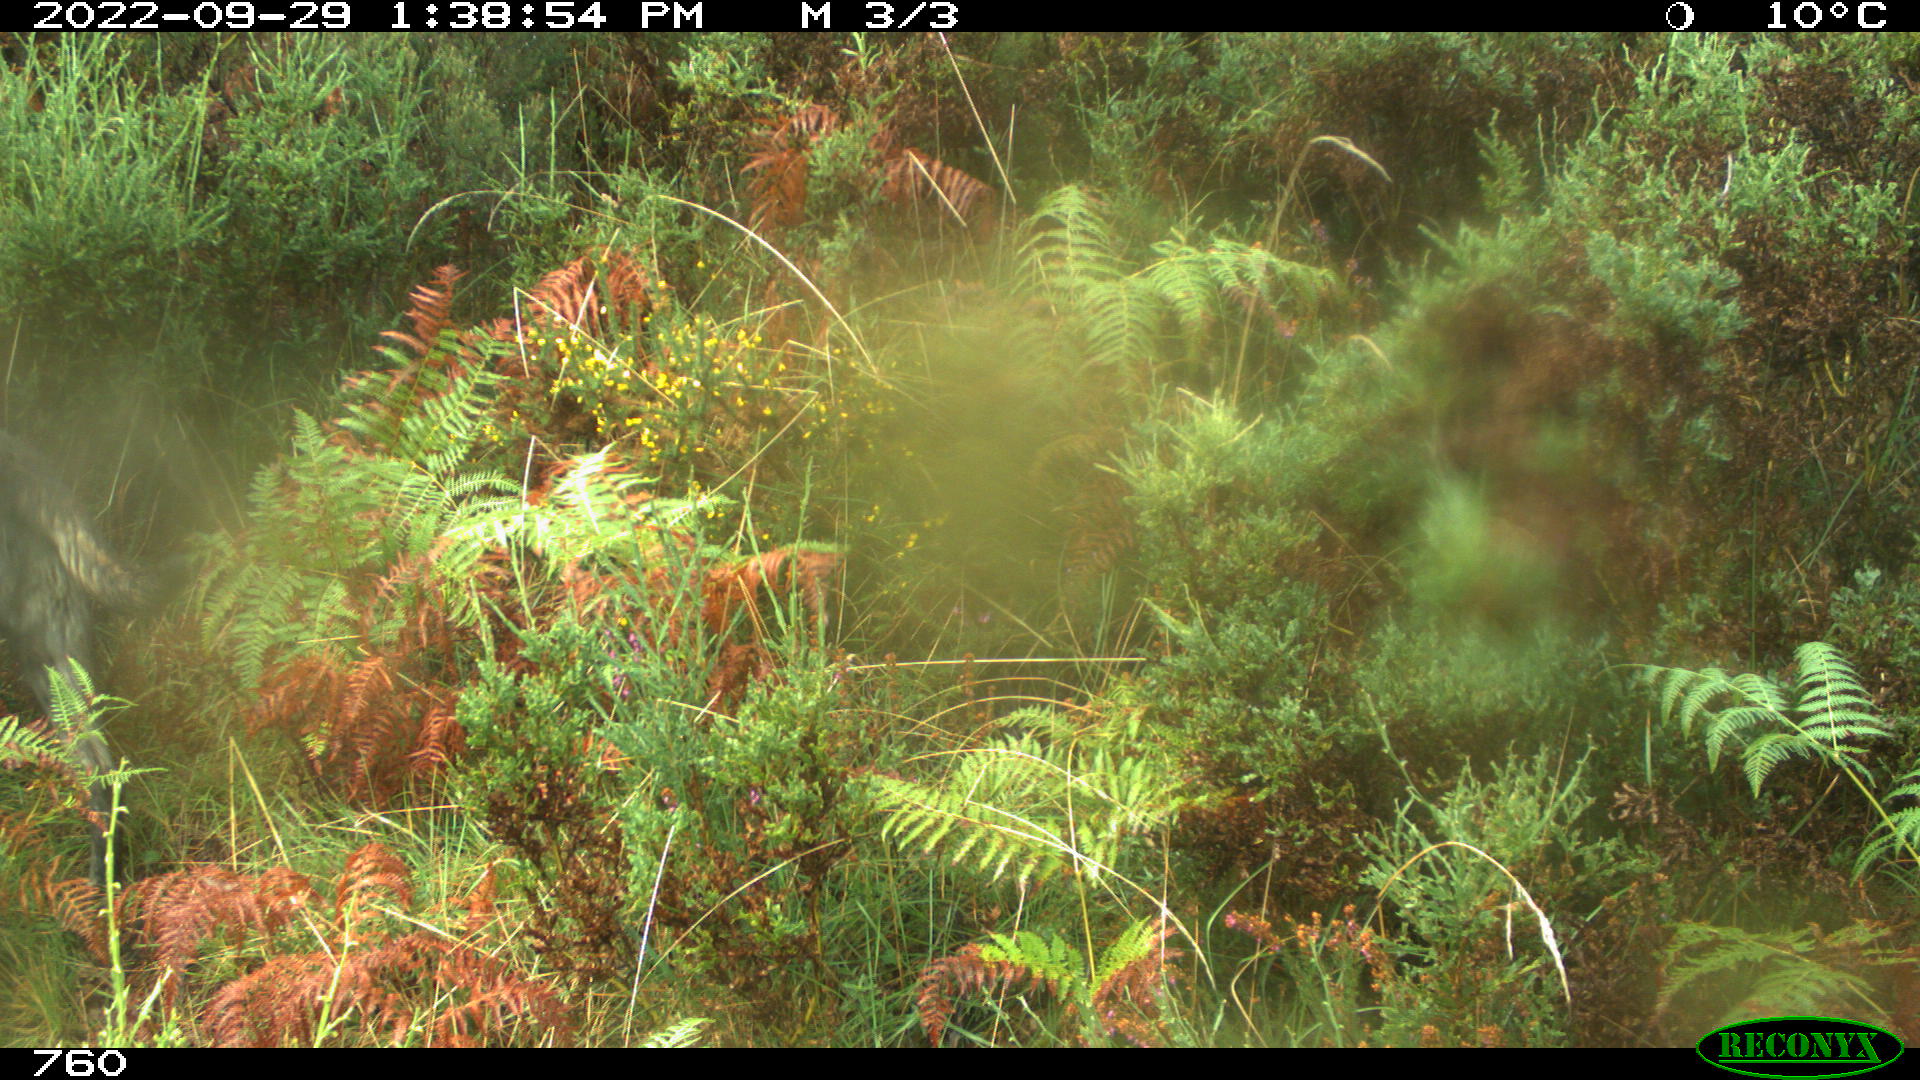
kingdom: Animalia
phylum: Chordata
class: Mammalia
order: Carnivora
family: Canidae
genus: Canis
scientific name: Canis lupus
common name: Gray wolf
